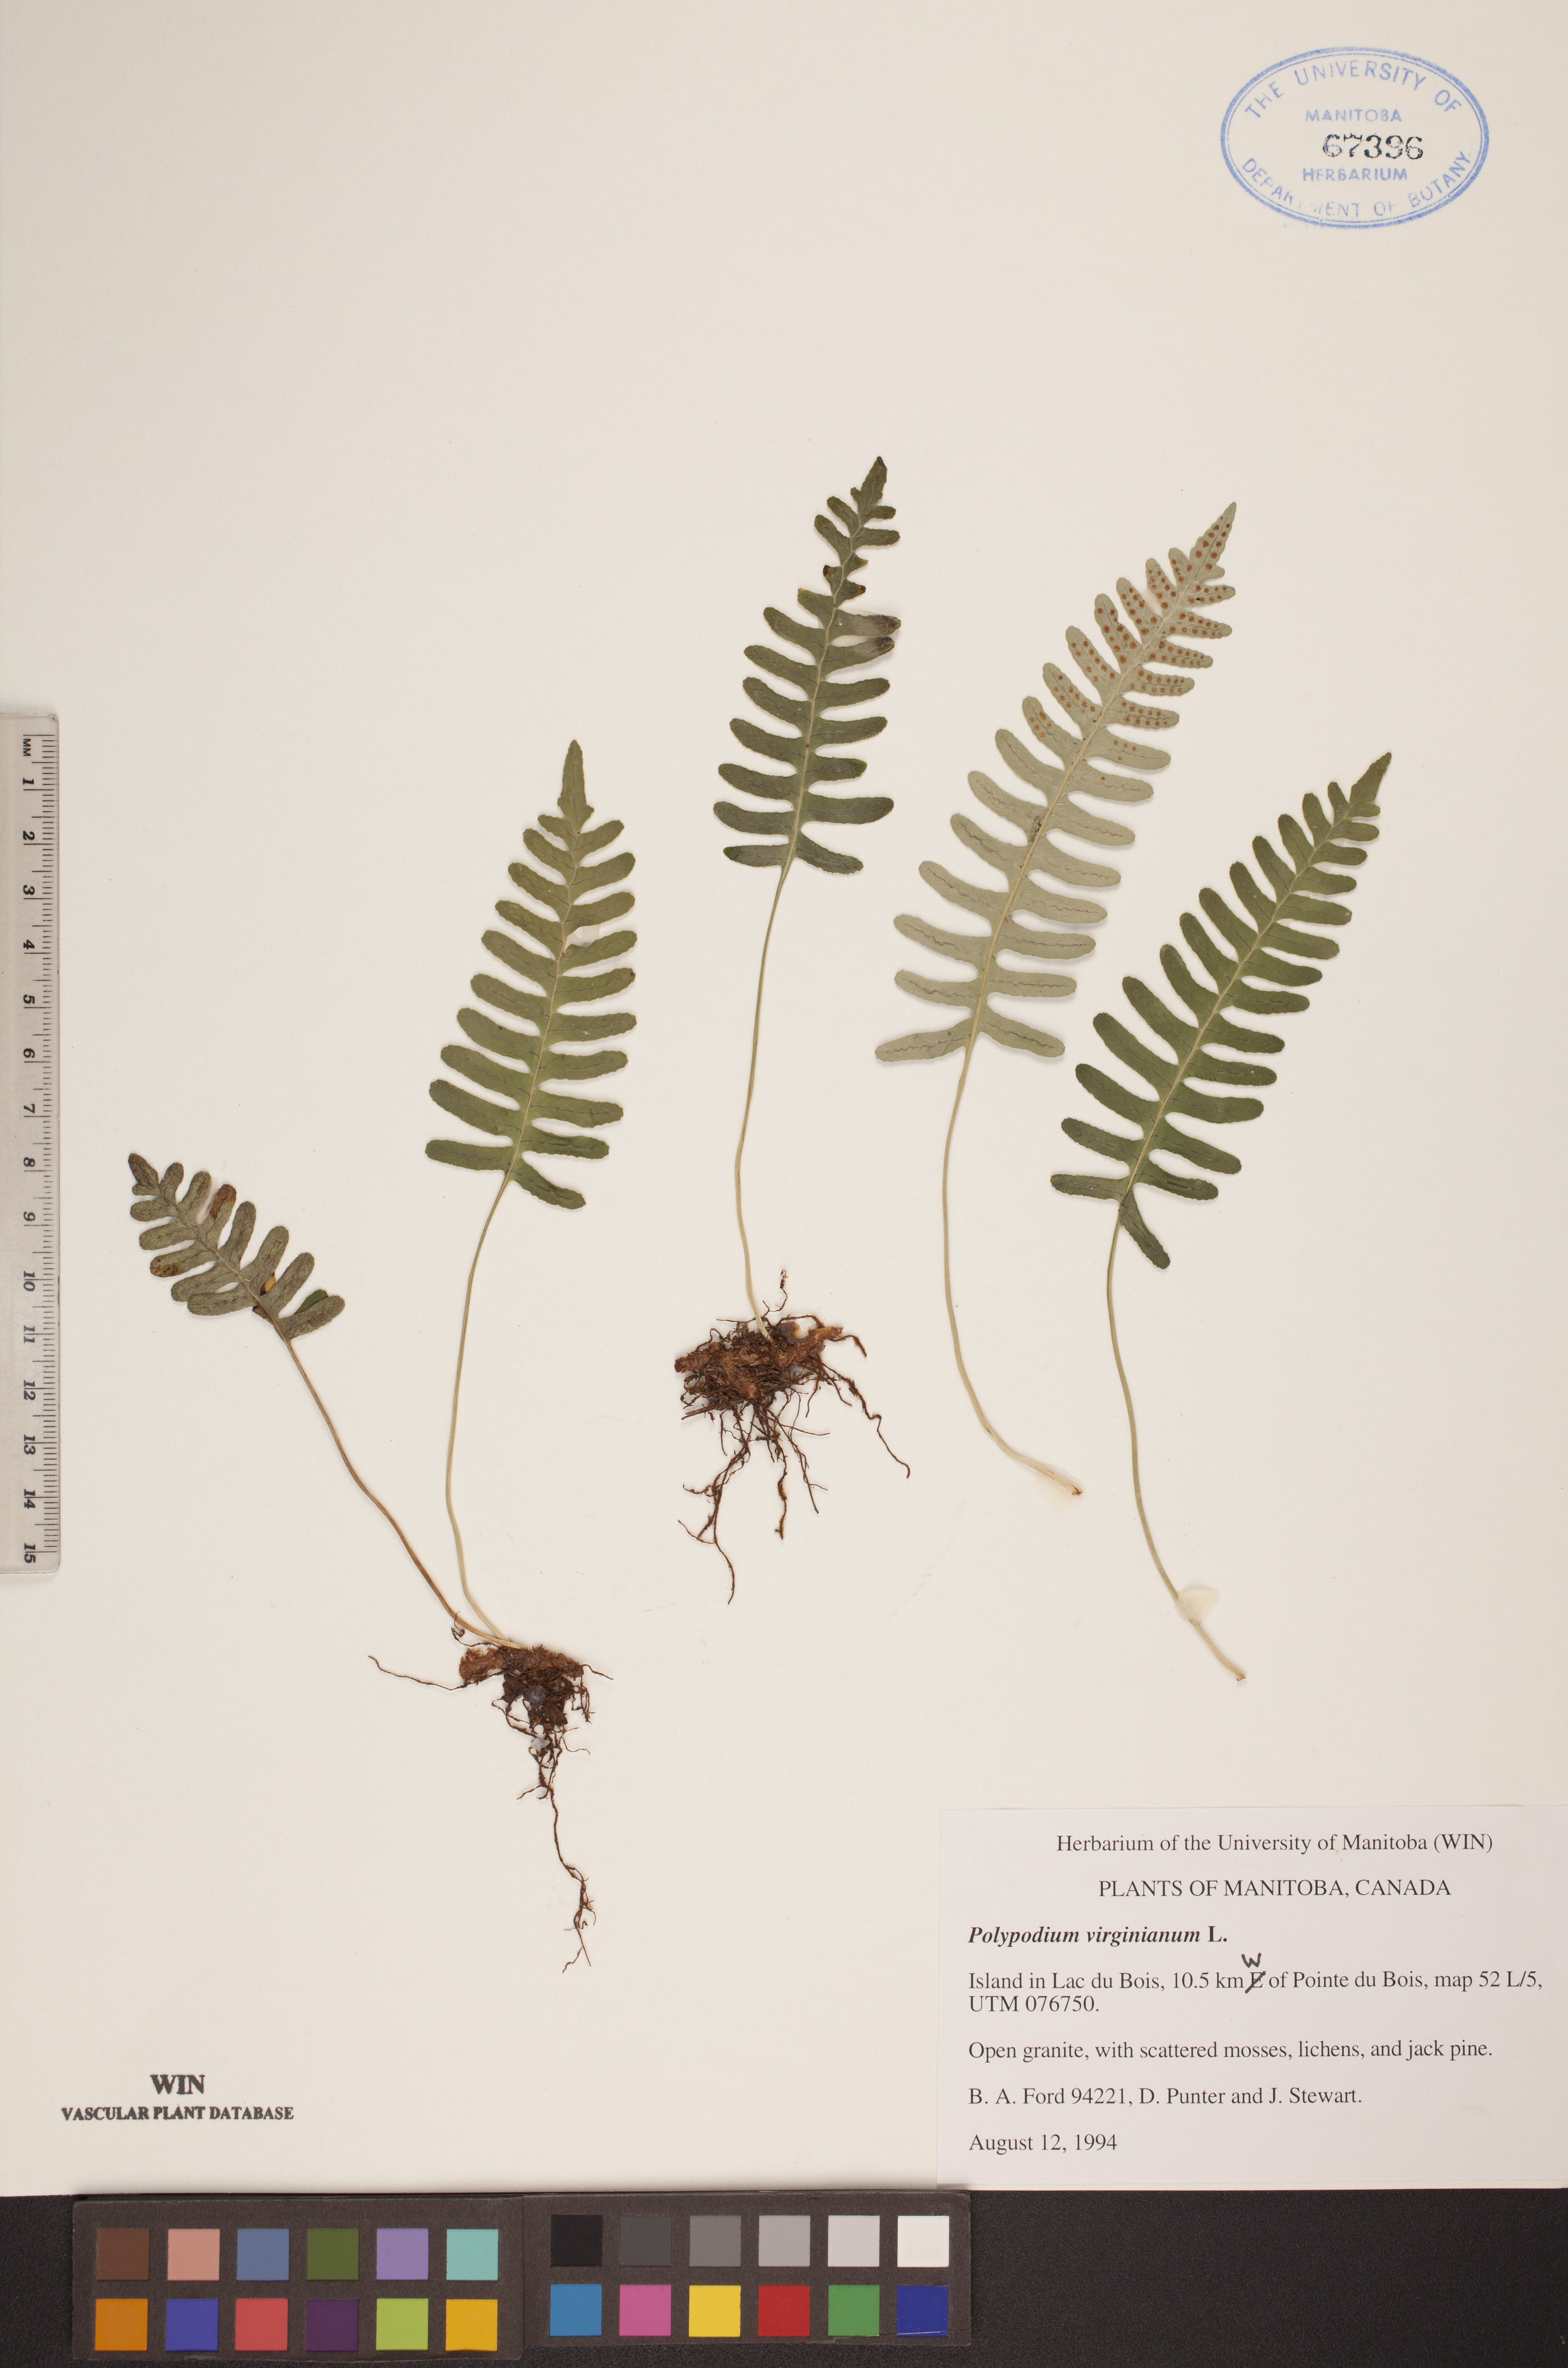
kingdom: Plantae
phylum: Tracheophyta
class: Polypodiopsida
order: Polypodiales
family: Polypodiaceae
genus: Polypodium
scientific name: Polypodium virginianum
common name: American wall fern
